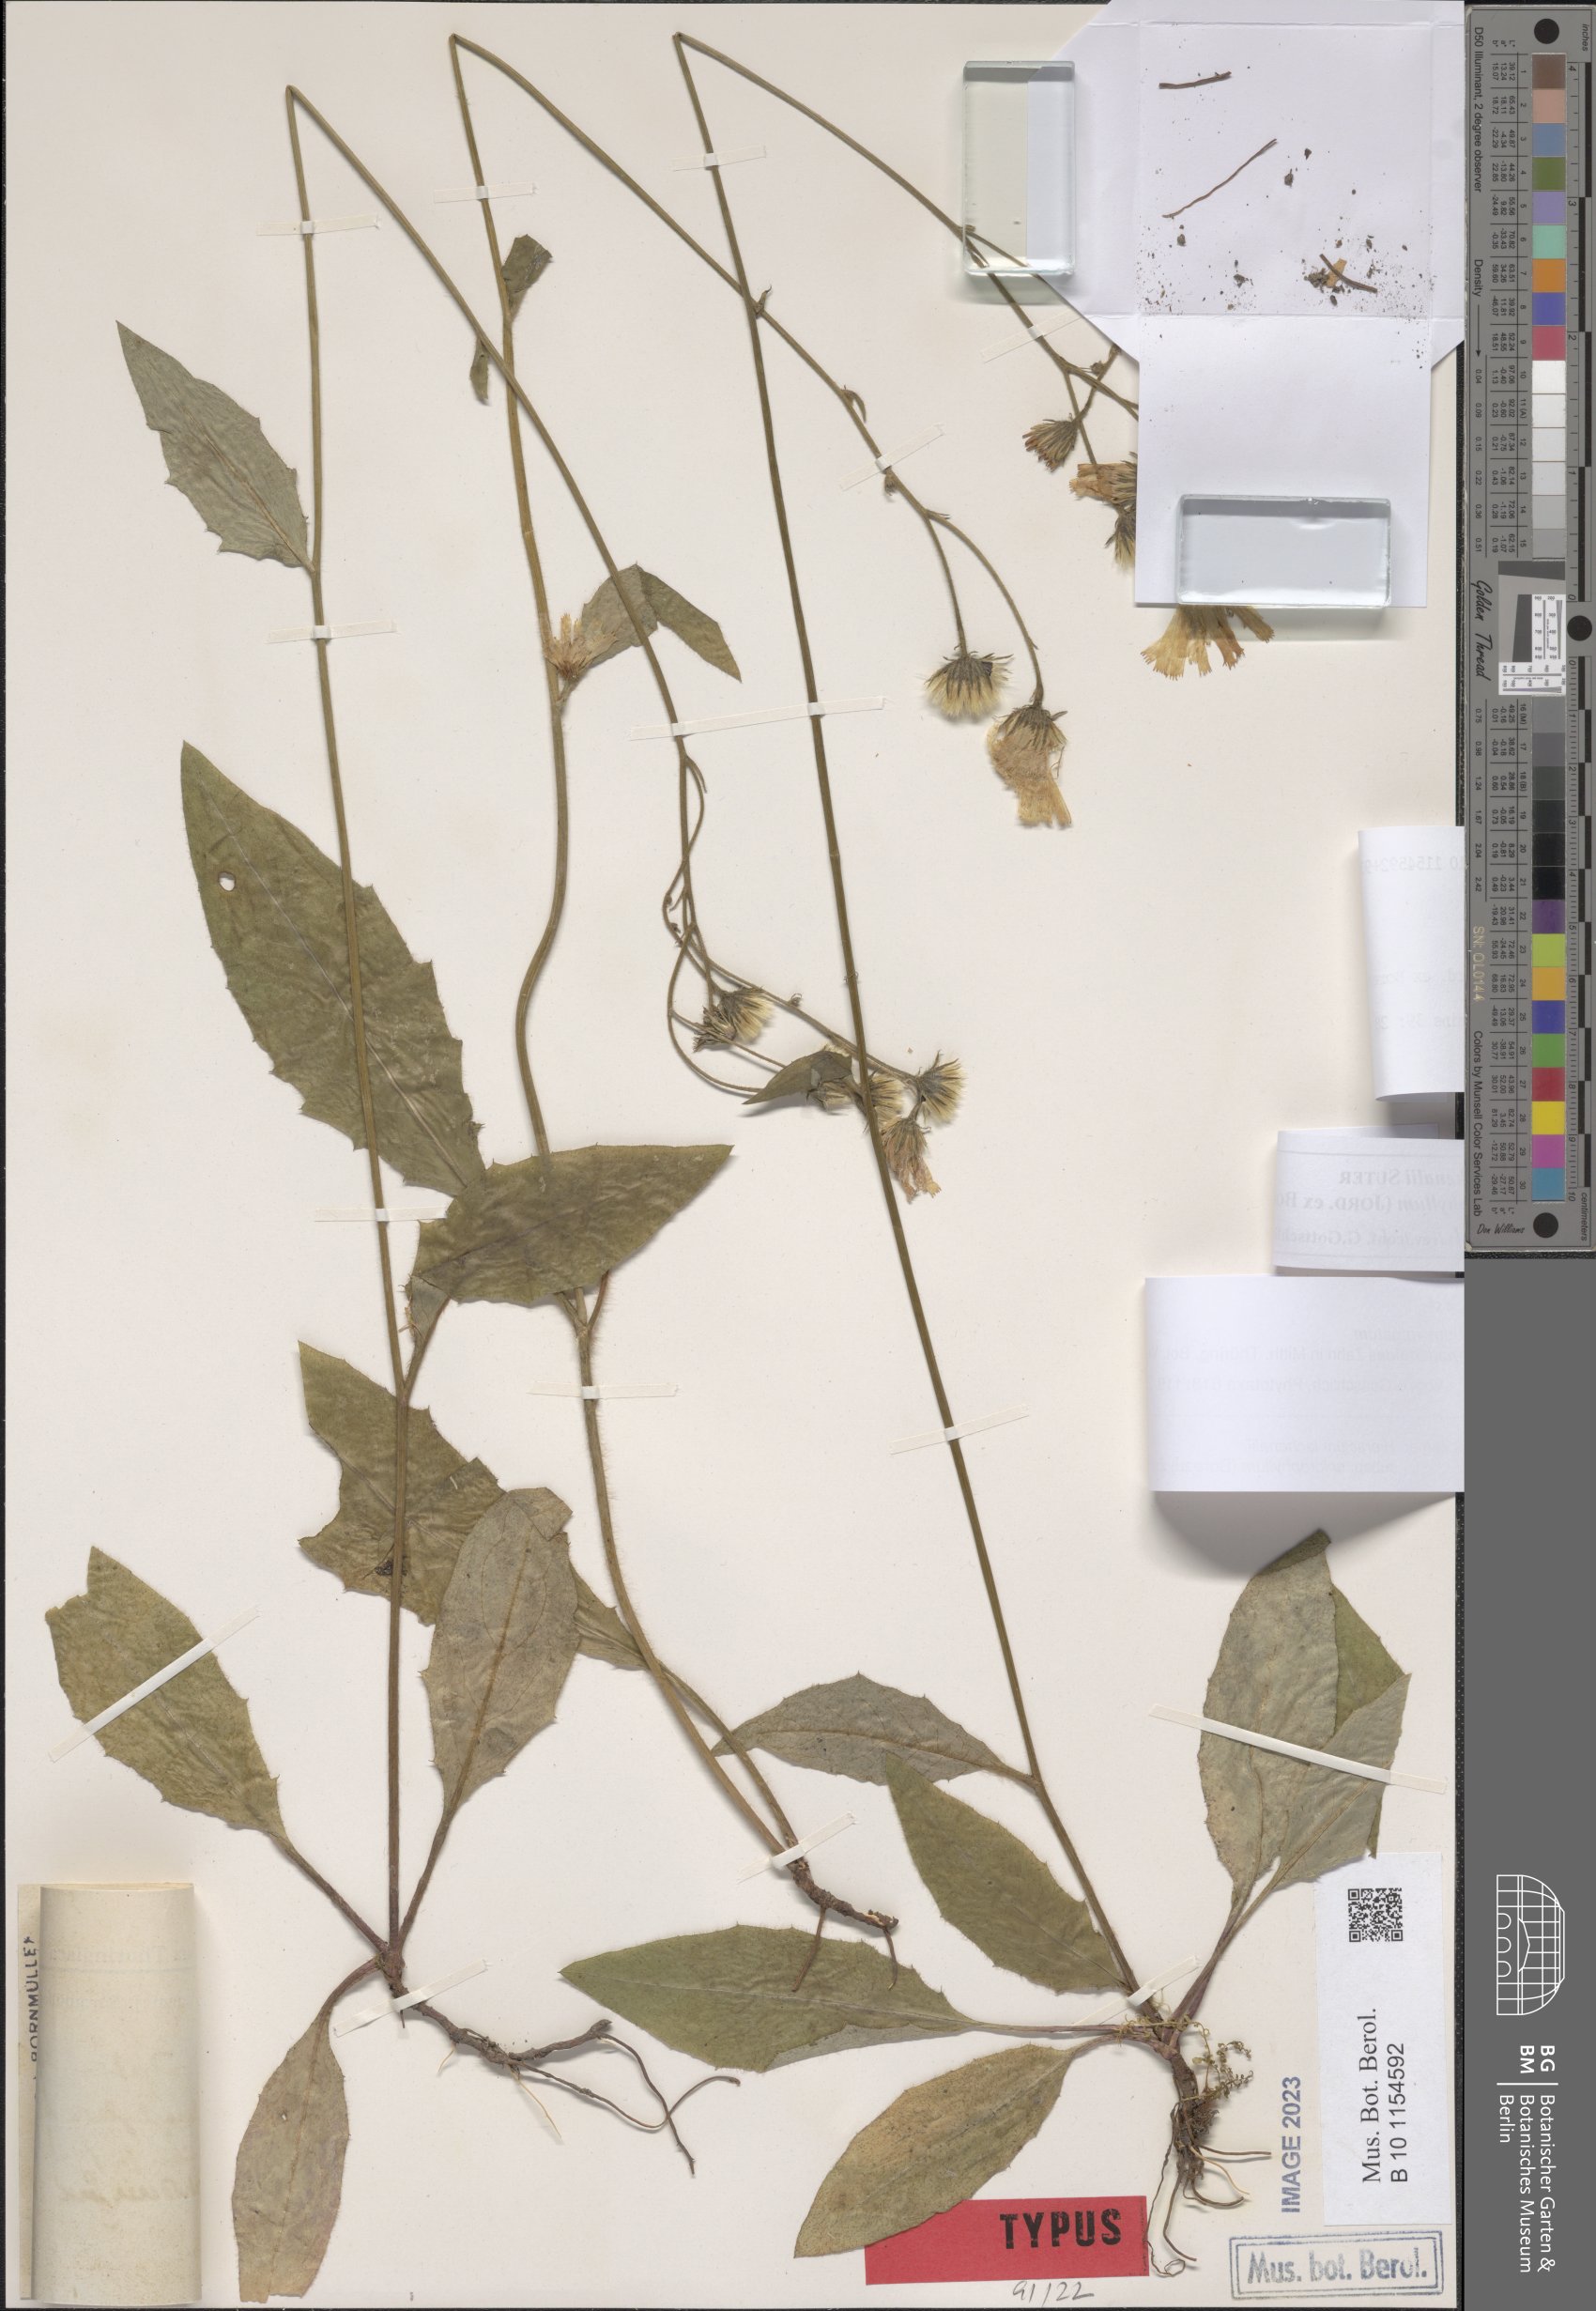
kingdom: Plantae
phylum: Tracheophyta
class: Magnoliopsida
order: Asterales
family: Asteraceae
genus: Hieracium
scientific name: Hieracium vulgatum
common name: Common hawkweed
